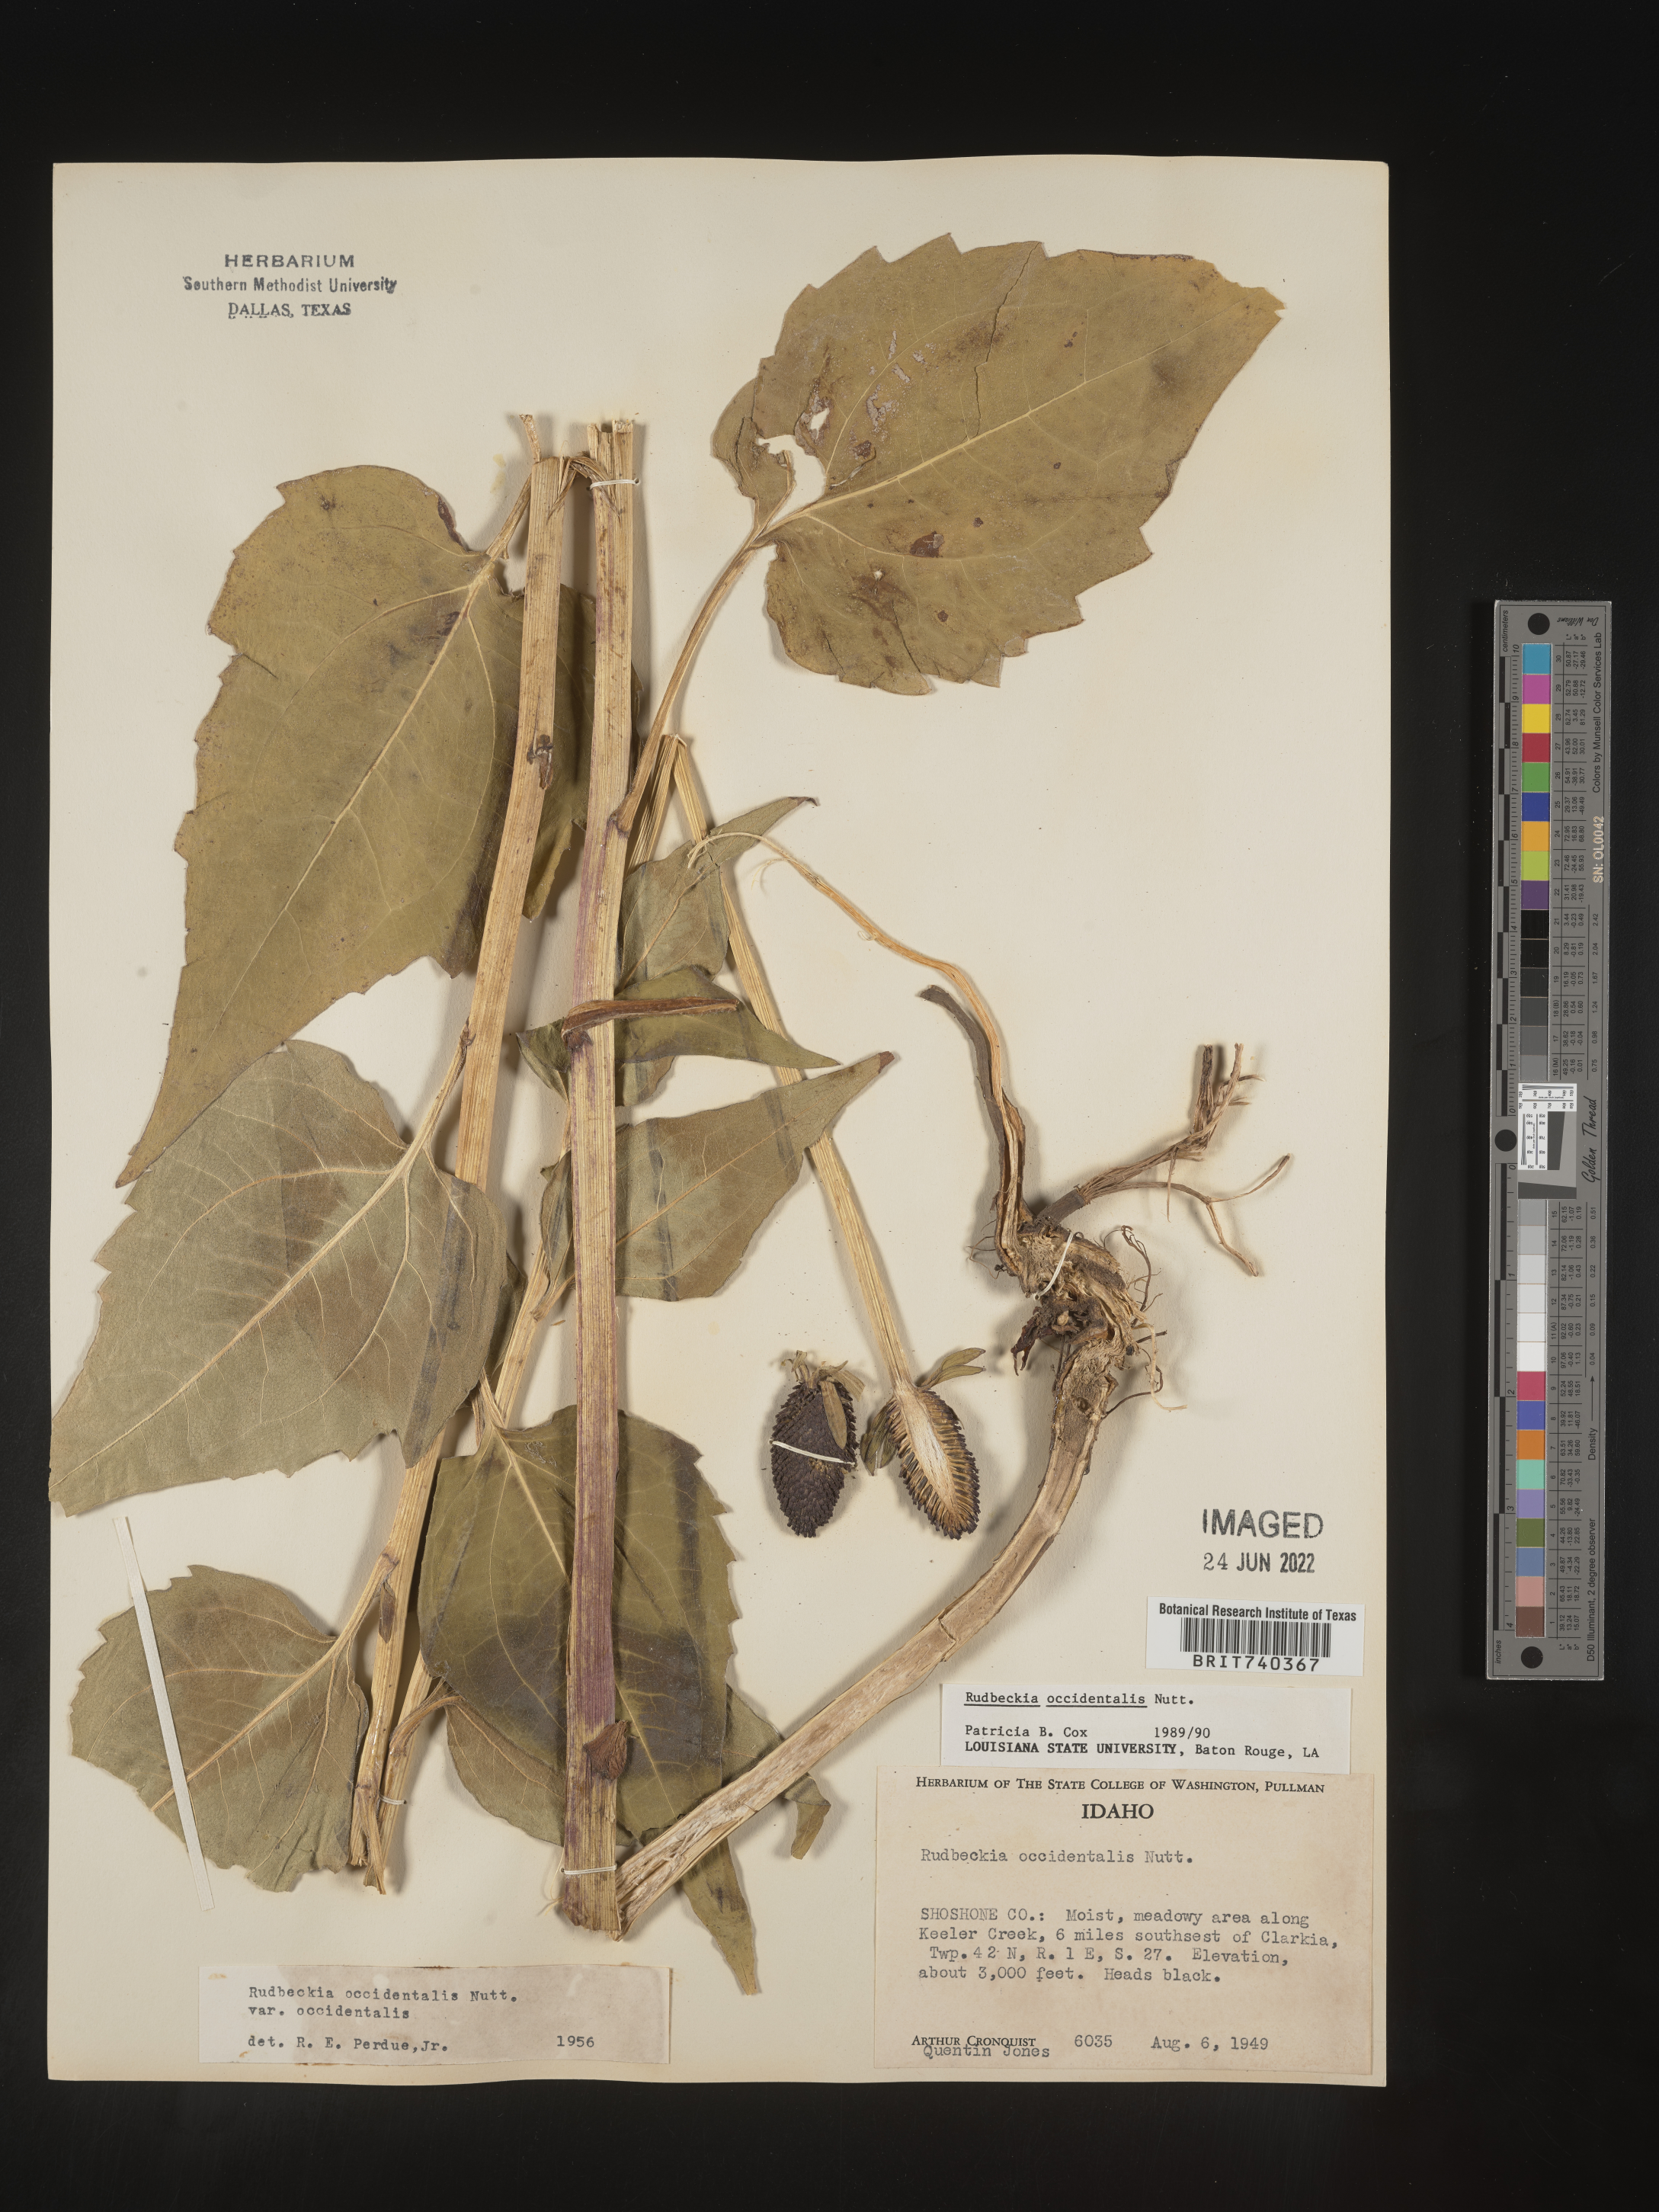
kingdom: Plantae
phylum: Tracheophyta
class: Magnoliopsida
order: Asterales
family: Asteraceae
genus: Rudbeckia
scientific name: Rudbeckia
